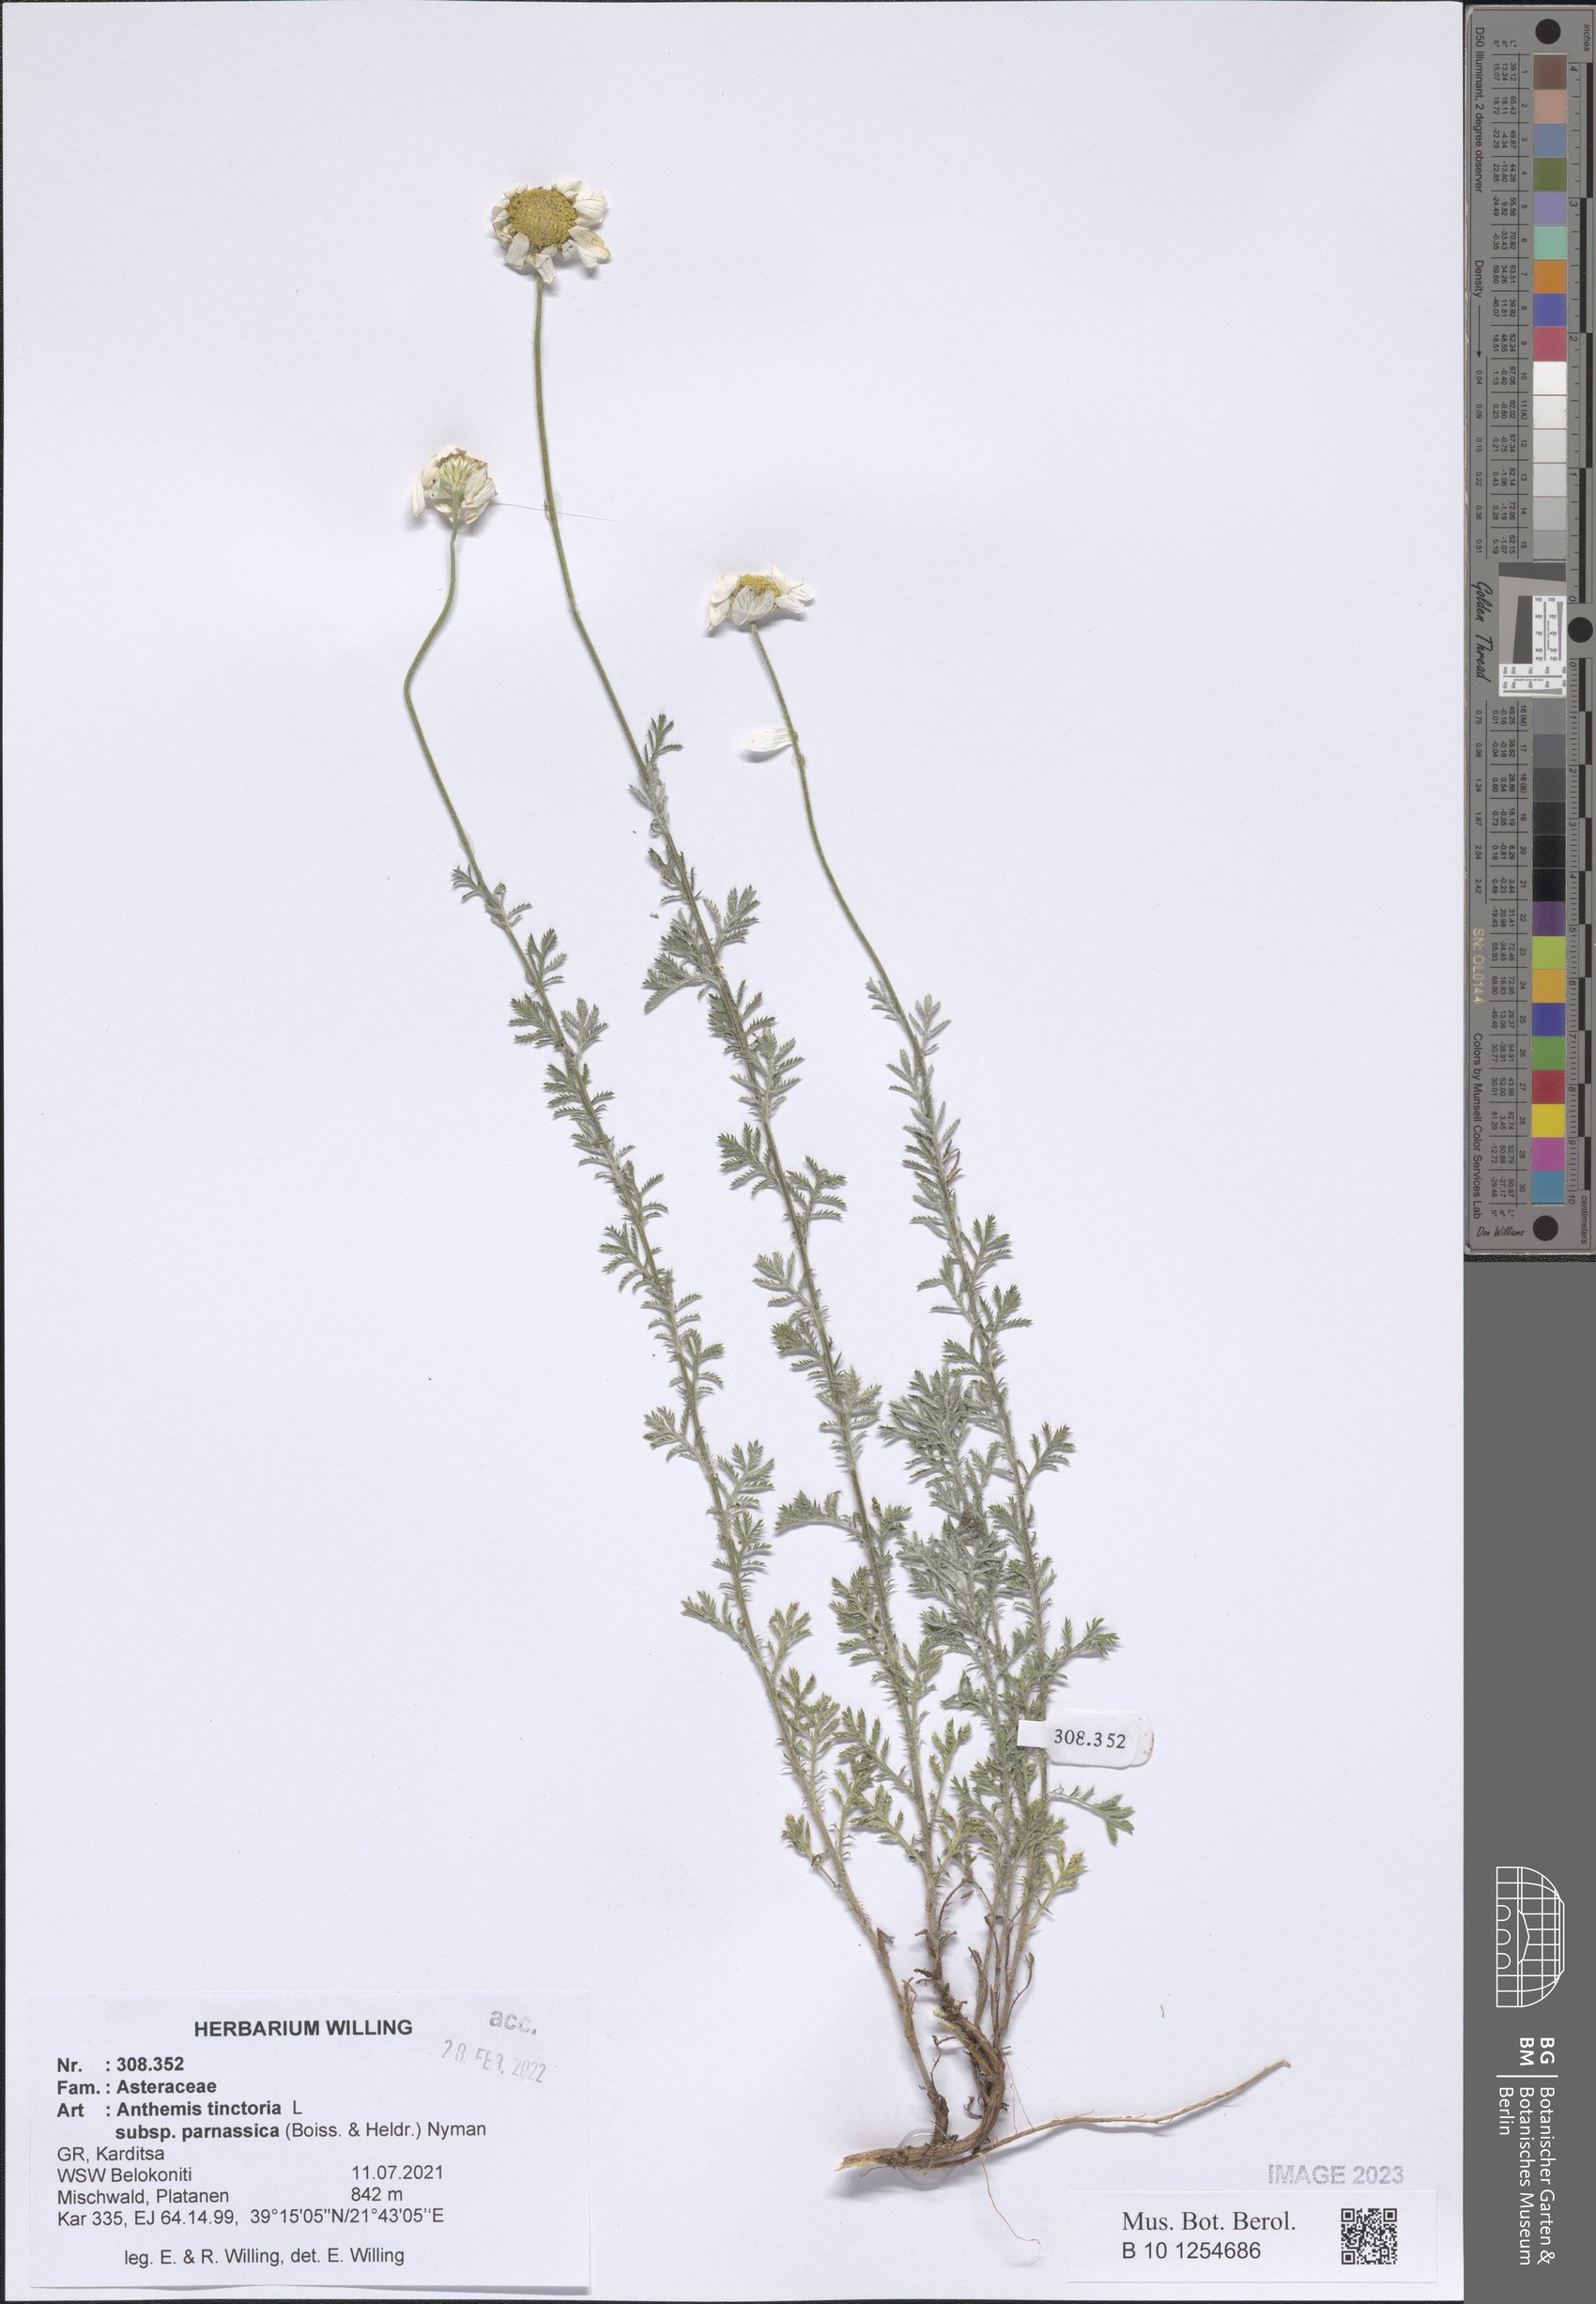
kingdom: Plantae
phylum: Tracheophyta
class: Magnoliopsida
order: Asterales
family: Asteraceae
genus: Cota
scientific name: Cota tinctoria
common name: Golden chamomile
